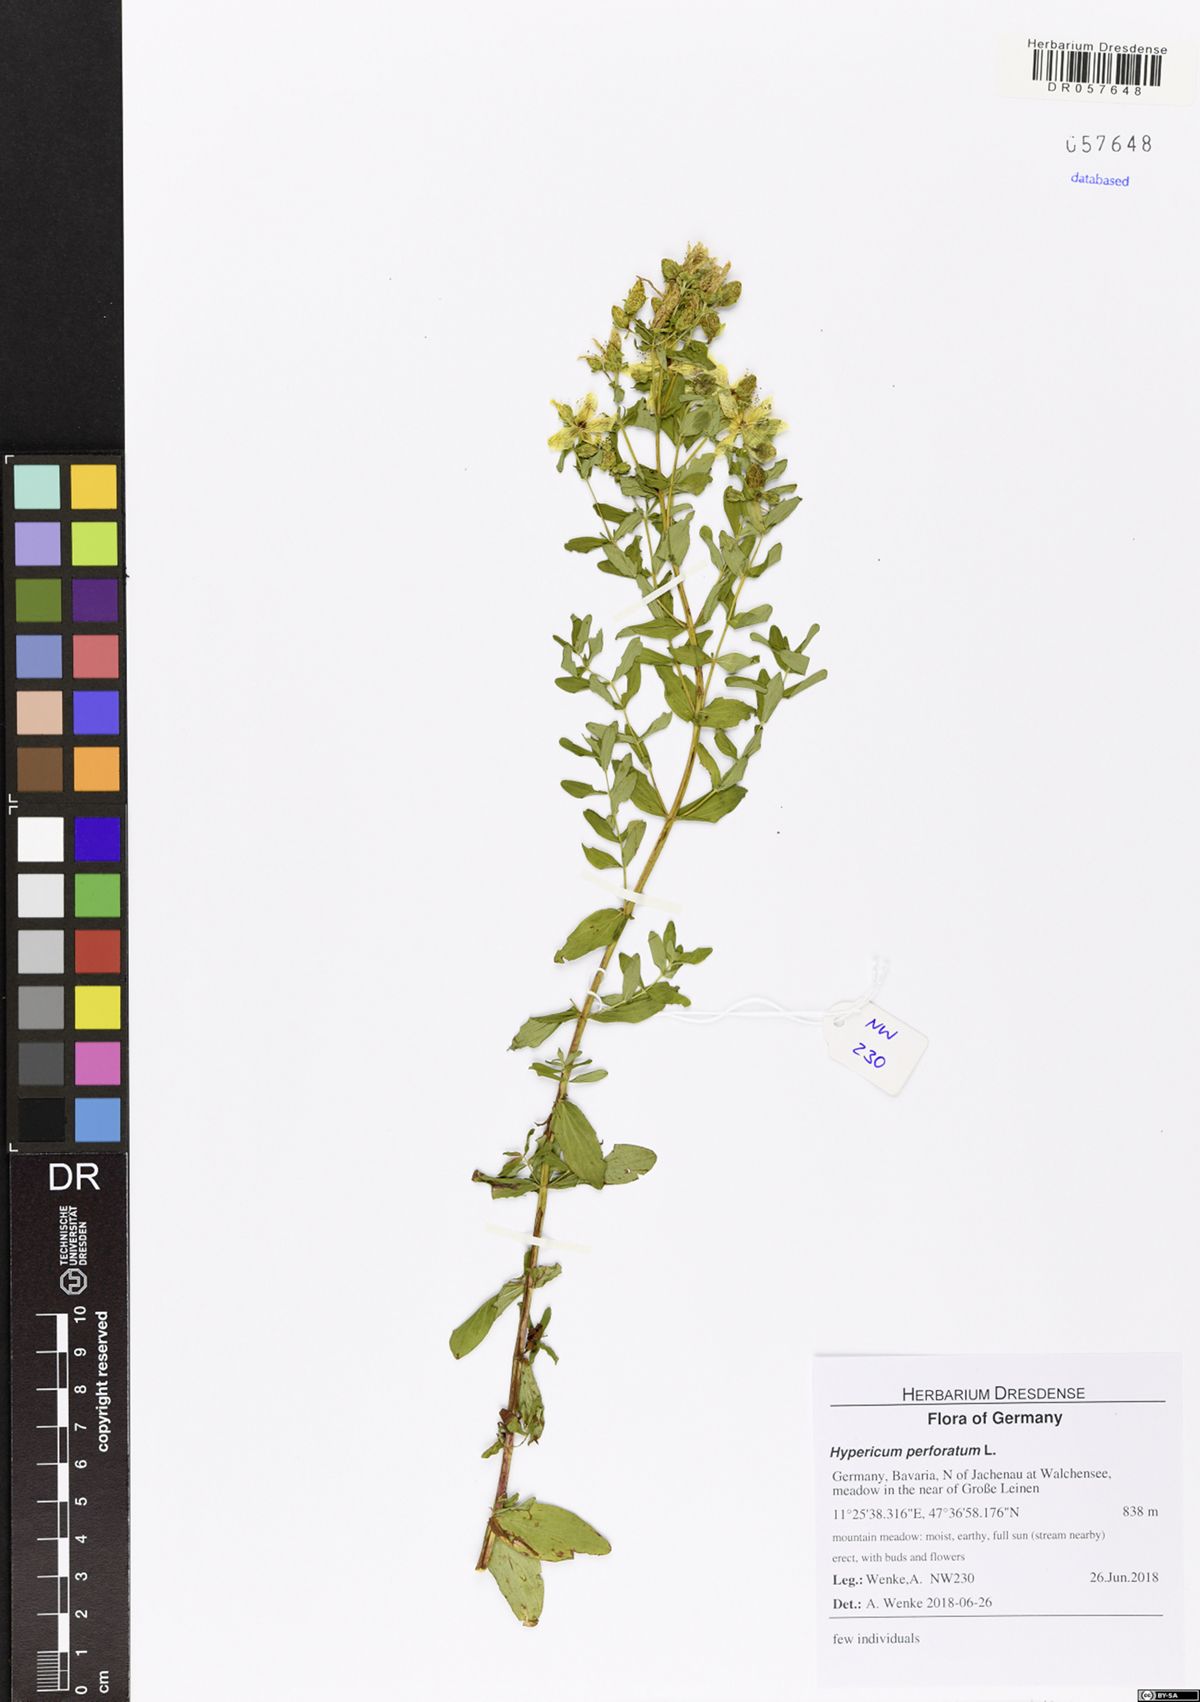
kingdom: Plantae
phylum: Tracheophyta
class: Magnoliopsida
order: Malpighiales
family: Hypericaceae
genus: Hypericum
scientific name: Hypericum perforatum
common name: Common st. johnswort
